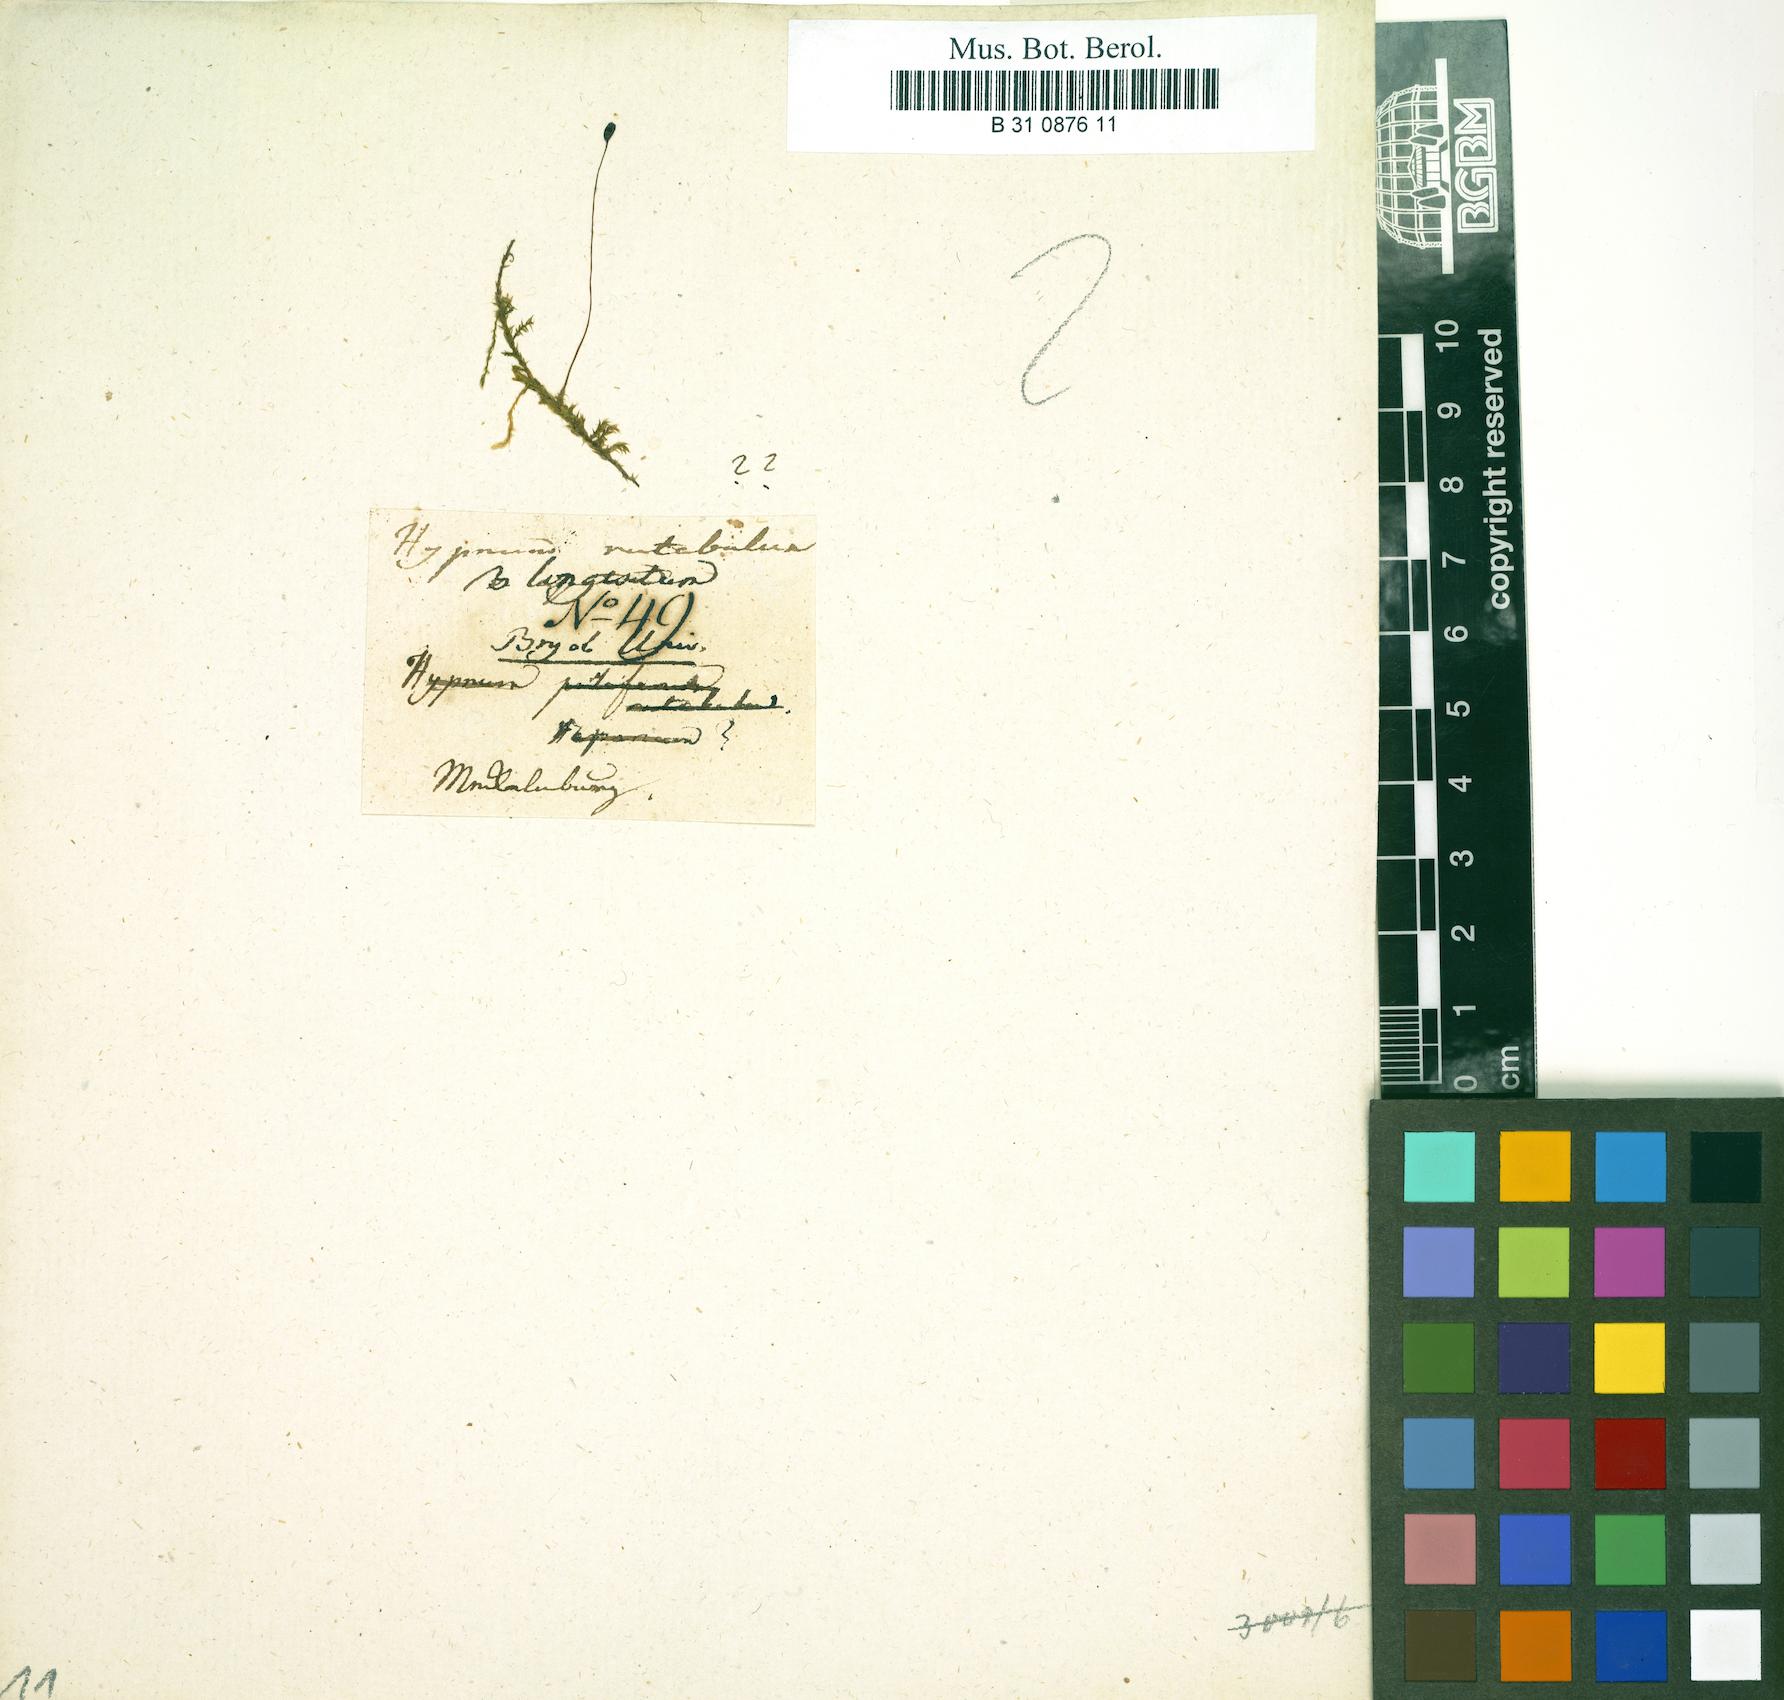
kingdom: Plantae
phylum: Bryophyta
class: Bryopsida
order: Hypnales
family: Brachytheciaceae
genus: Brachythecium
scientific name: Brachythecium rutabulum
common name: Rough-stalked feather-moss
